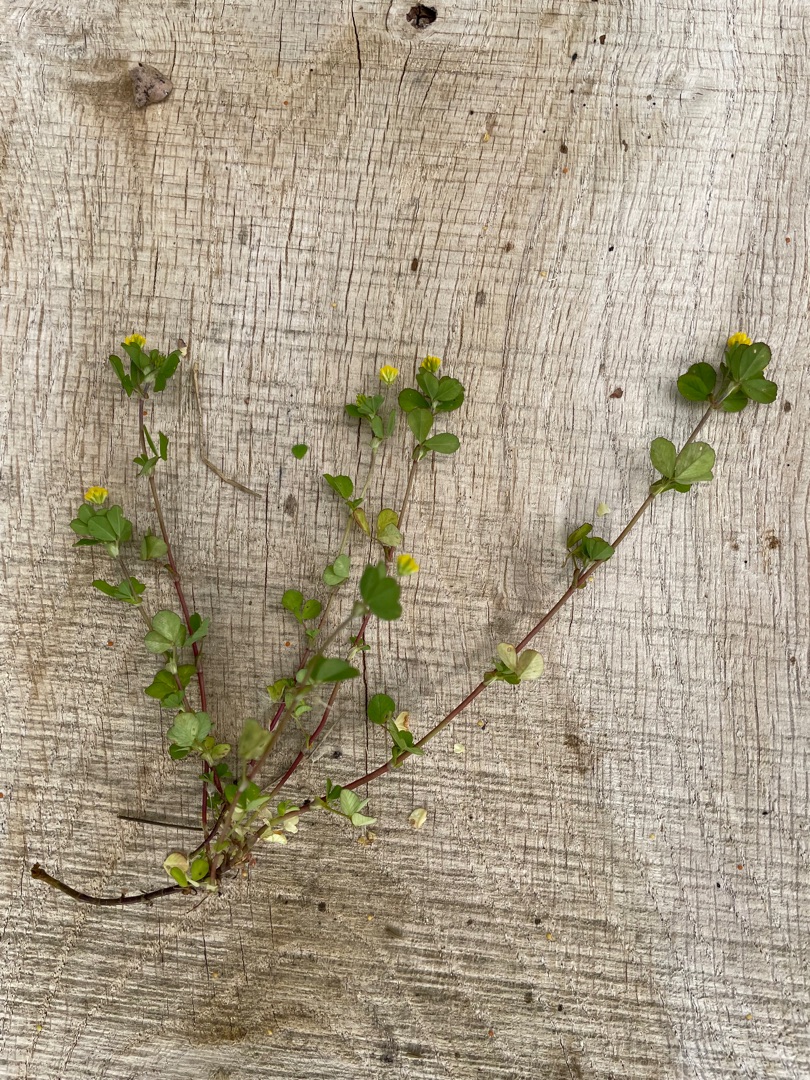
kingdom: Plantae
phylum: Tracheophyta
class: Magnoliopsida
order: Fabales
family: Fabaceae
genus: Trifolium
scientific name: Trifolium dubium
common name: Fin kløver
